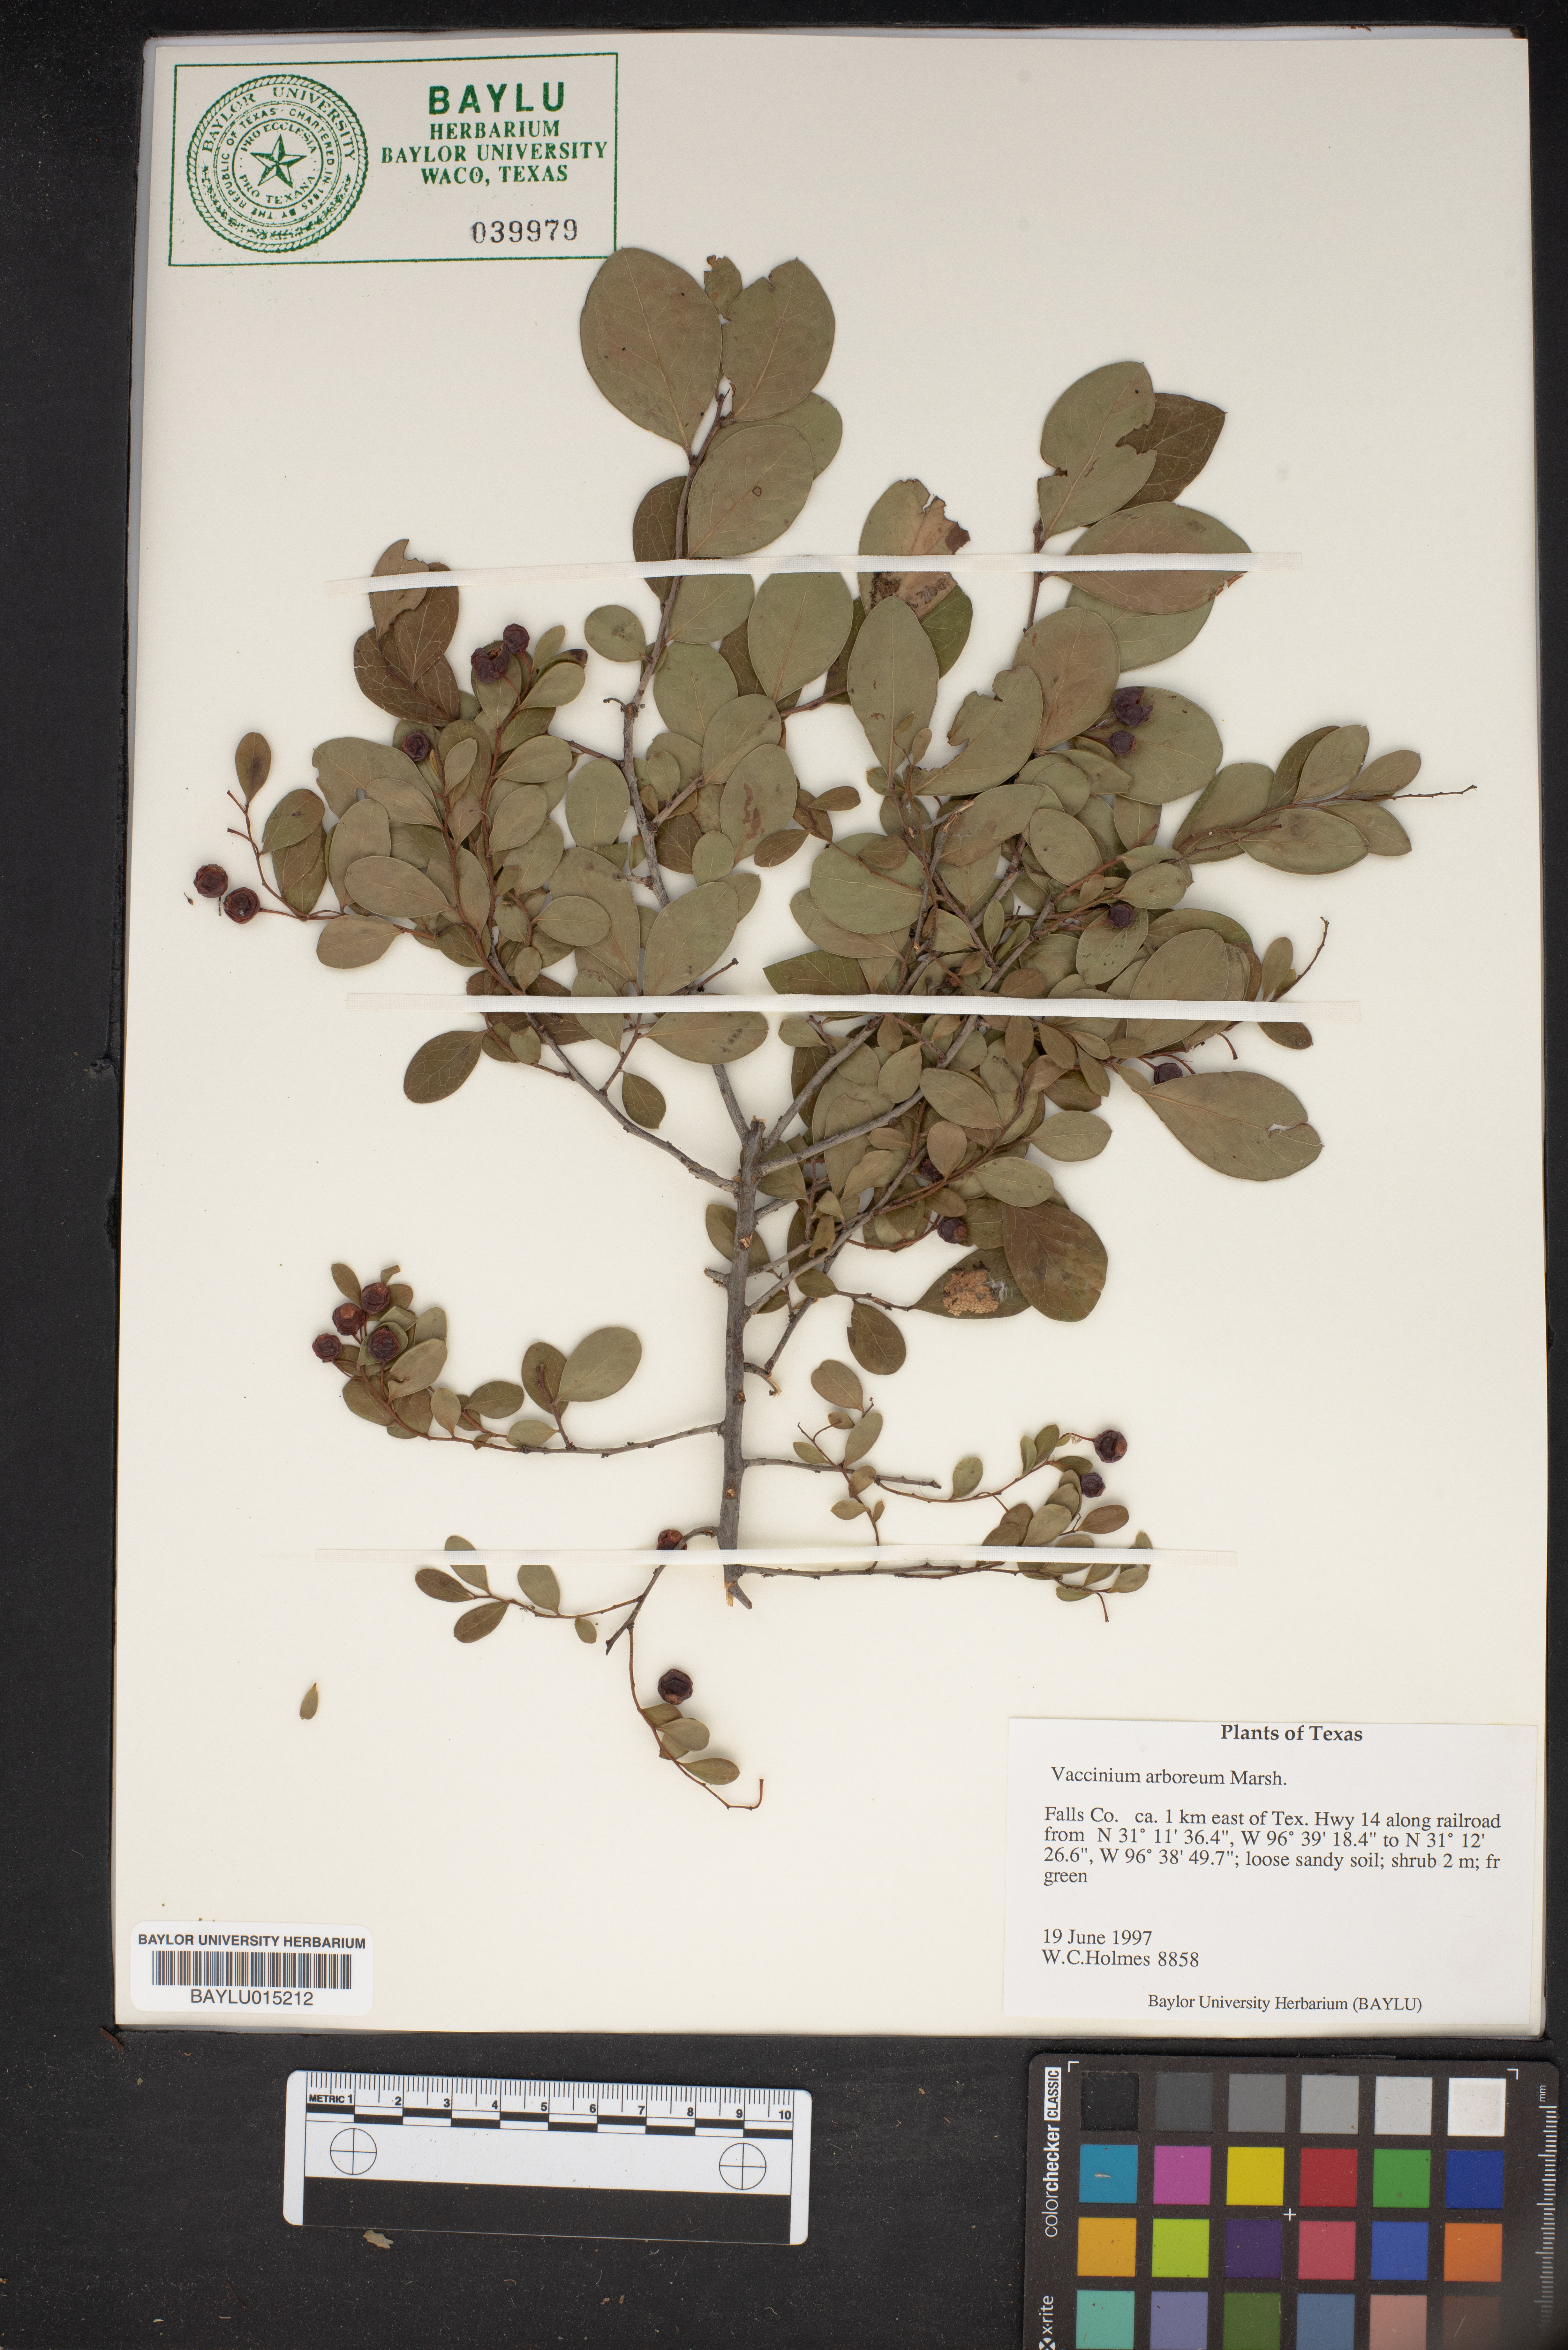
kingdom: Plantae
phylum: Tracheophyta
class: Magnoliopsida
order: Ericales
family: Ericaceae
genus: Vaccinium
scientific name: Vaccinium arboreum
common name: Farkleberry
